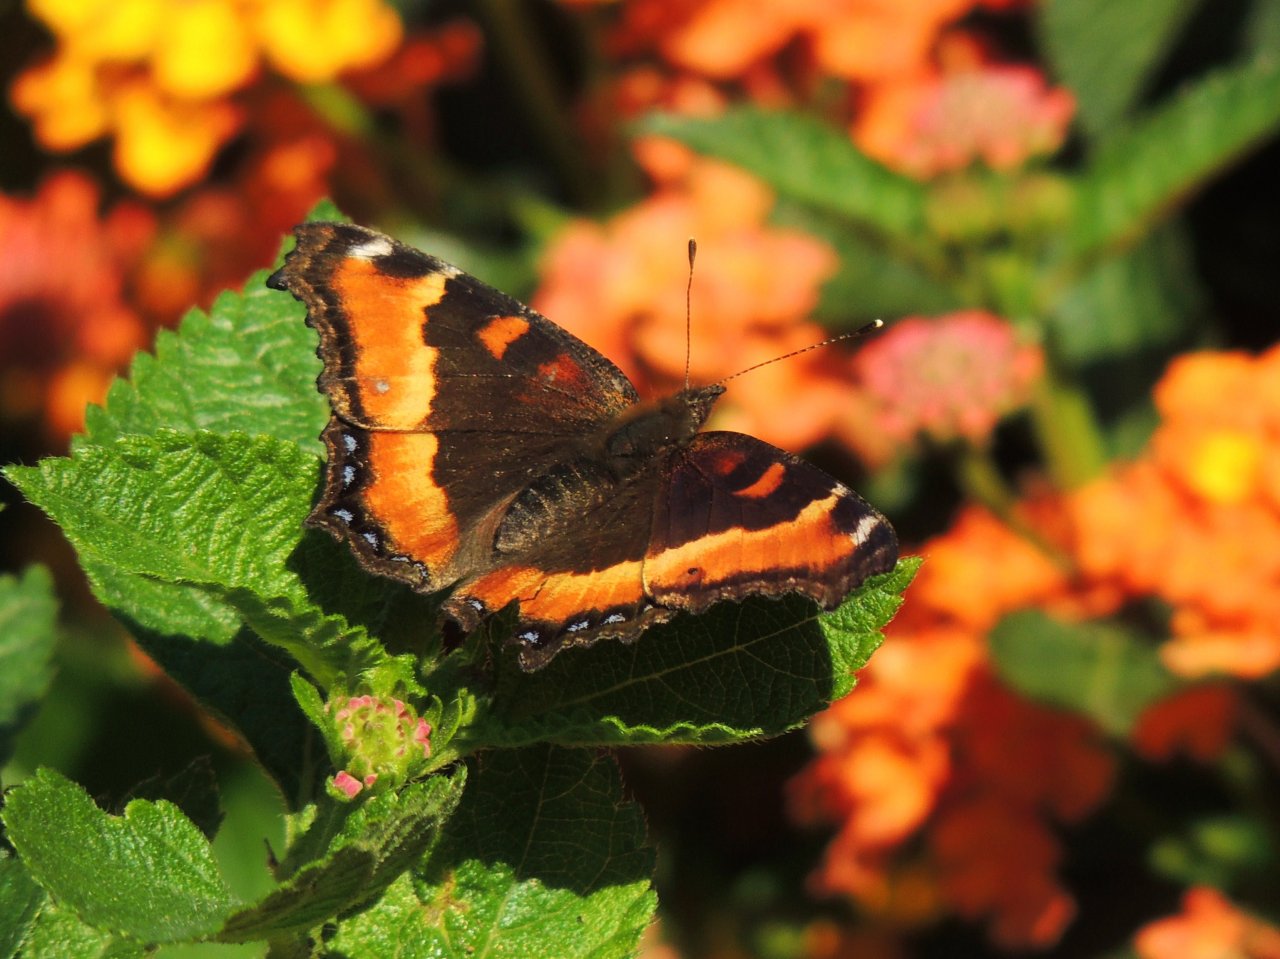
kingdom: Animalia
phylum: Arthropoda
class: Insecta
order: Lepidoptera
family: Nymphalidae
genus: Aglais
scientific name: Aglais milberti
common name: Milbert's Tortoiseshell
